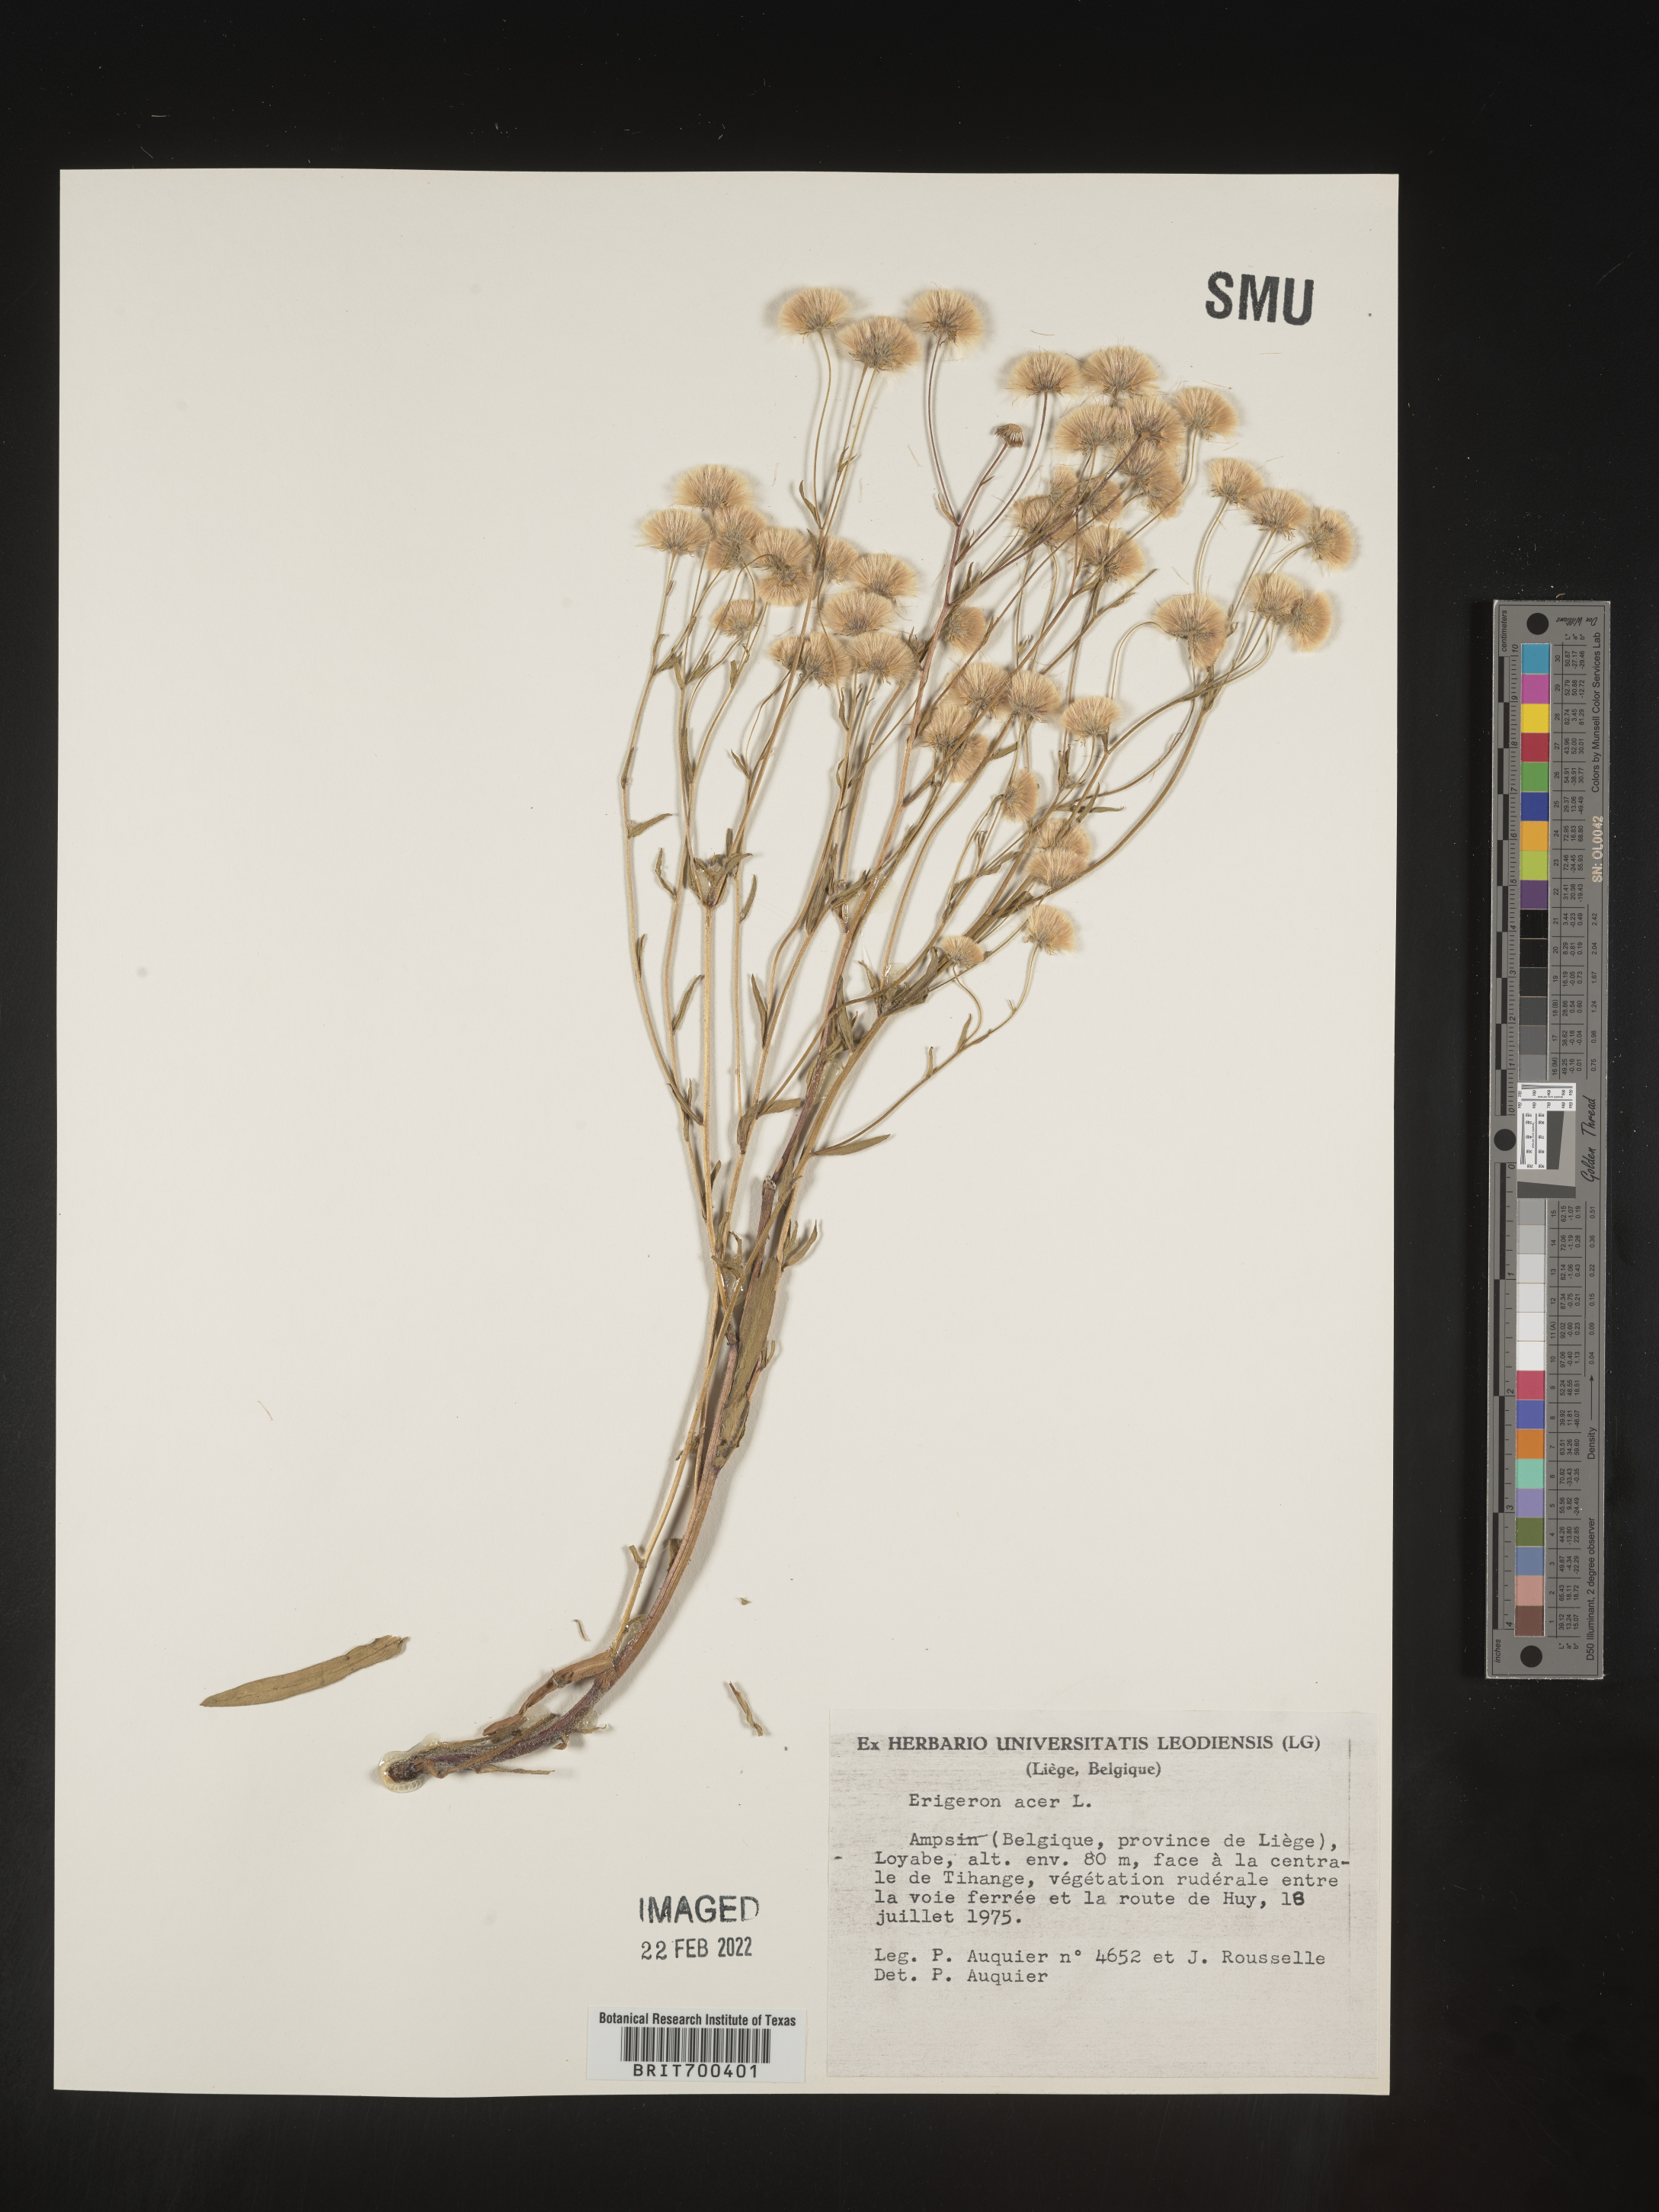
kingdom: Plantae
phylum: Tracheophyta
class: Magnoliopsida
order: Asterales
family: Asteraceae
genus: Erigeron
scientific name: Erigeron
